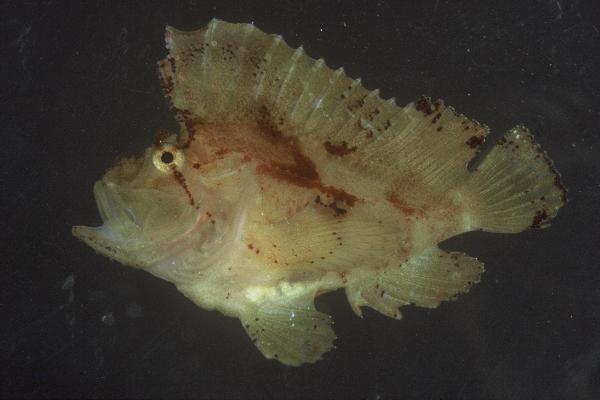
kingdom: Animalia
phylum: Chordata
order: Scorpaeniformes
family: Scorpaenidae
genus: Taenianotus
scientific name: Taenianotus triacanthus
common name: Leaf scorpionfish
